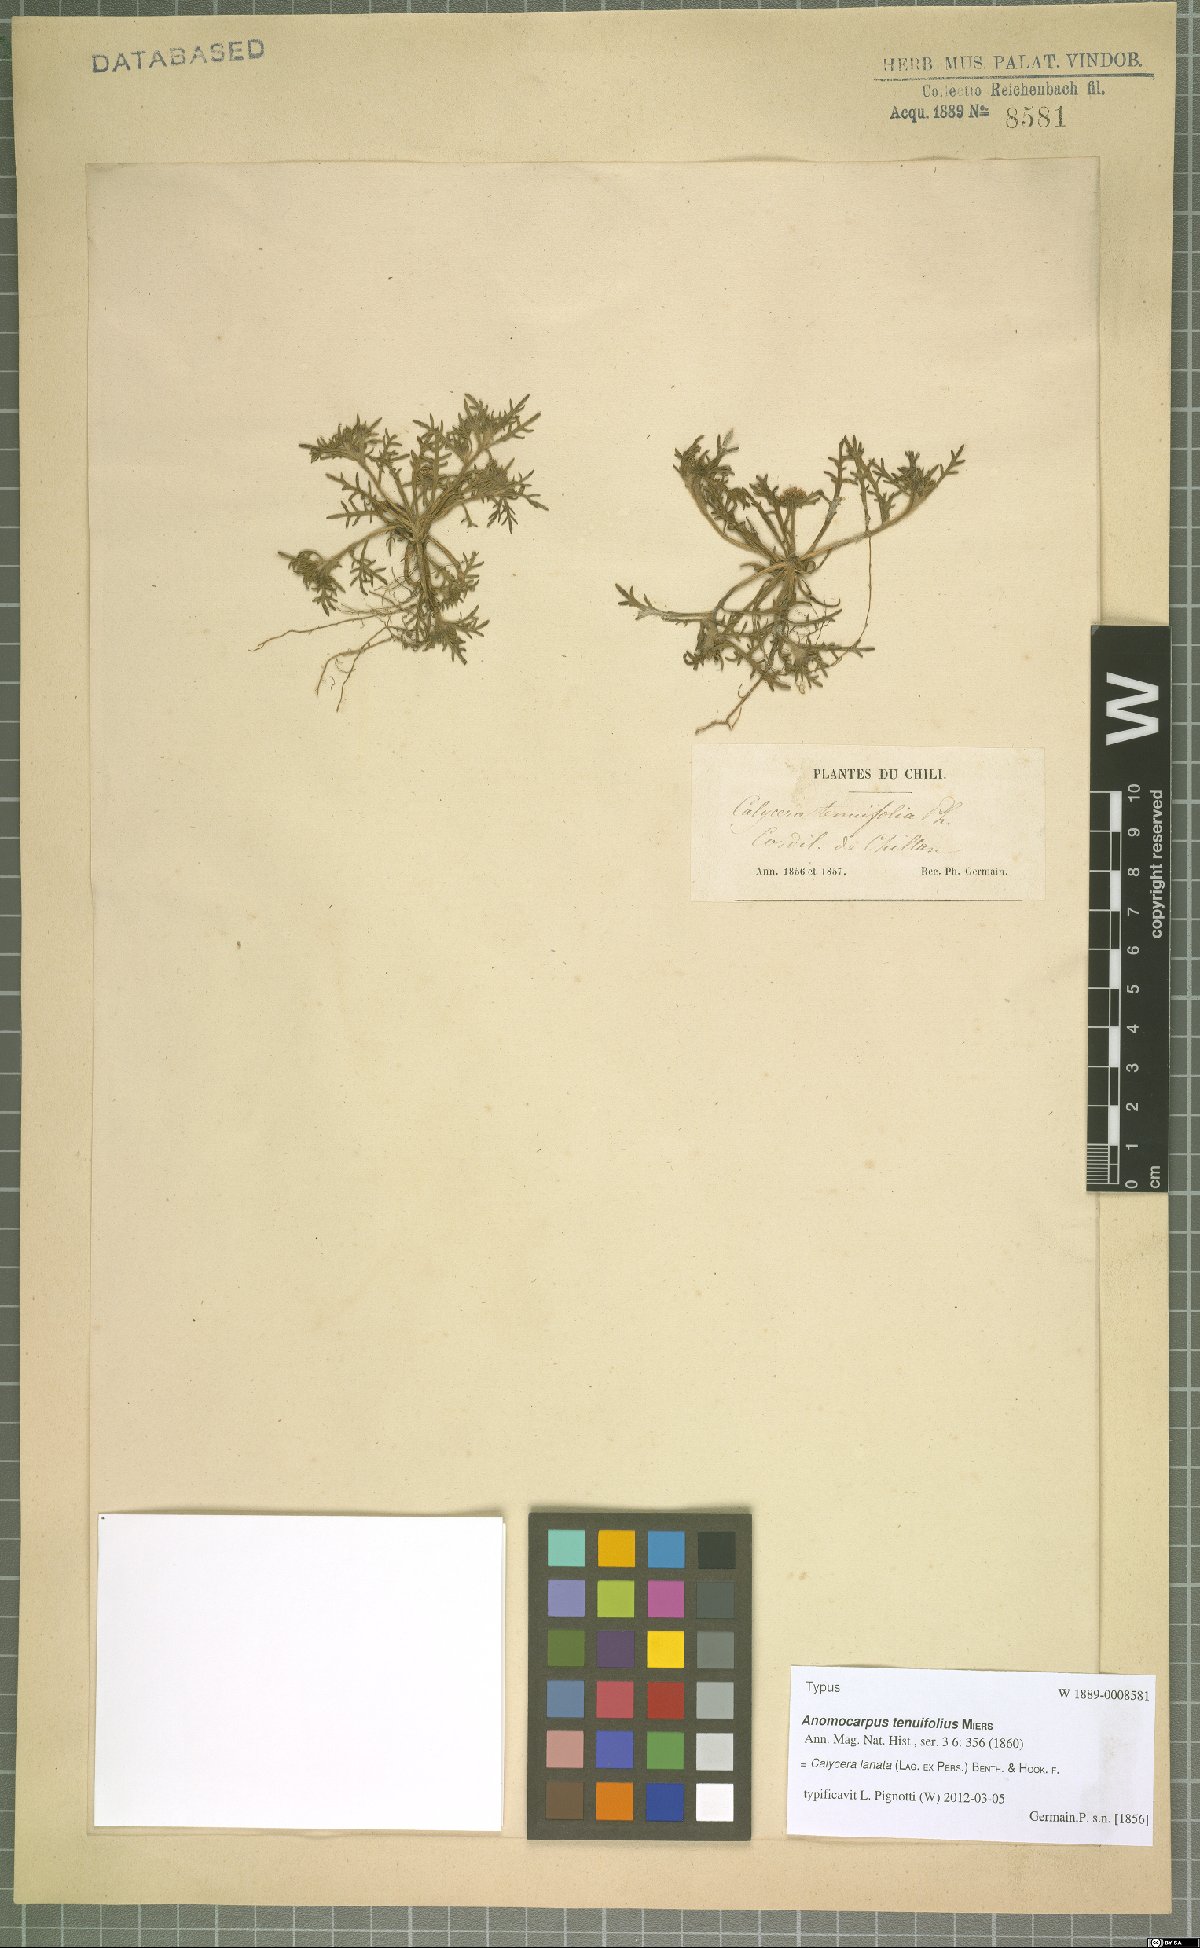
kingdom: Plantae
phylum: Tracheophyta
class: Magnoliopsida
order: Asterales
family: Calyceraceae
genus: Leucocera
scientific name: Leucocera leucanthema
